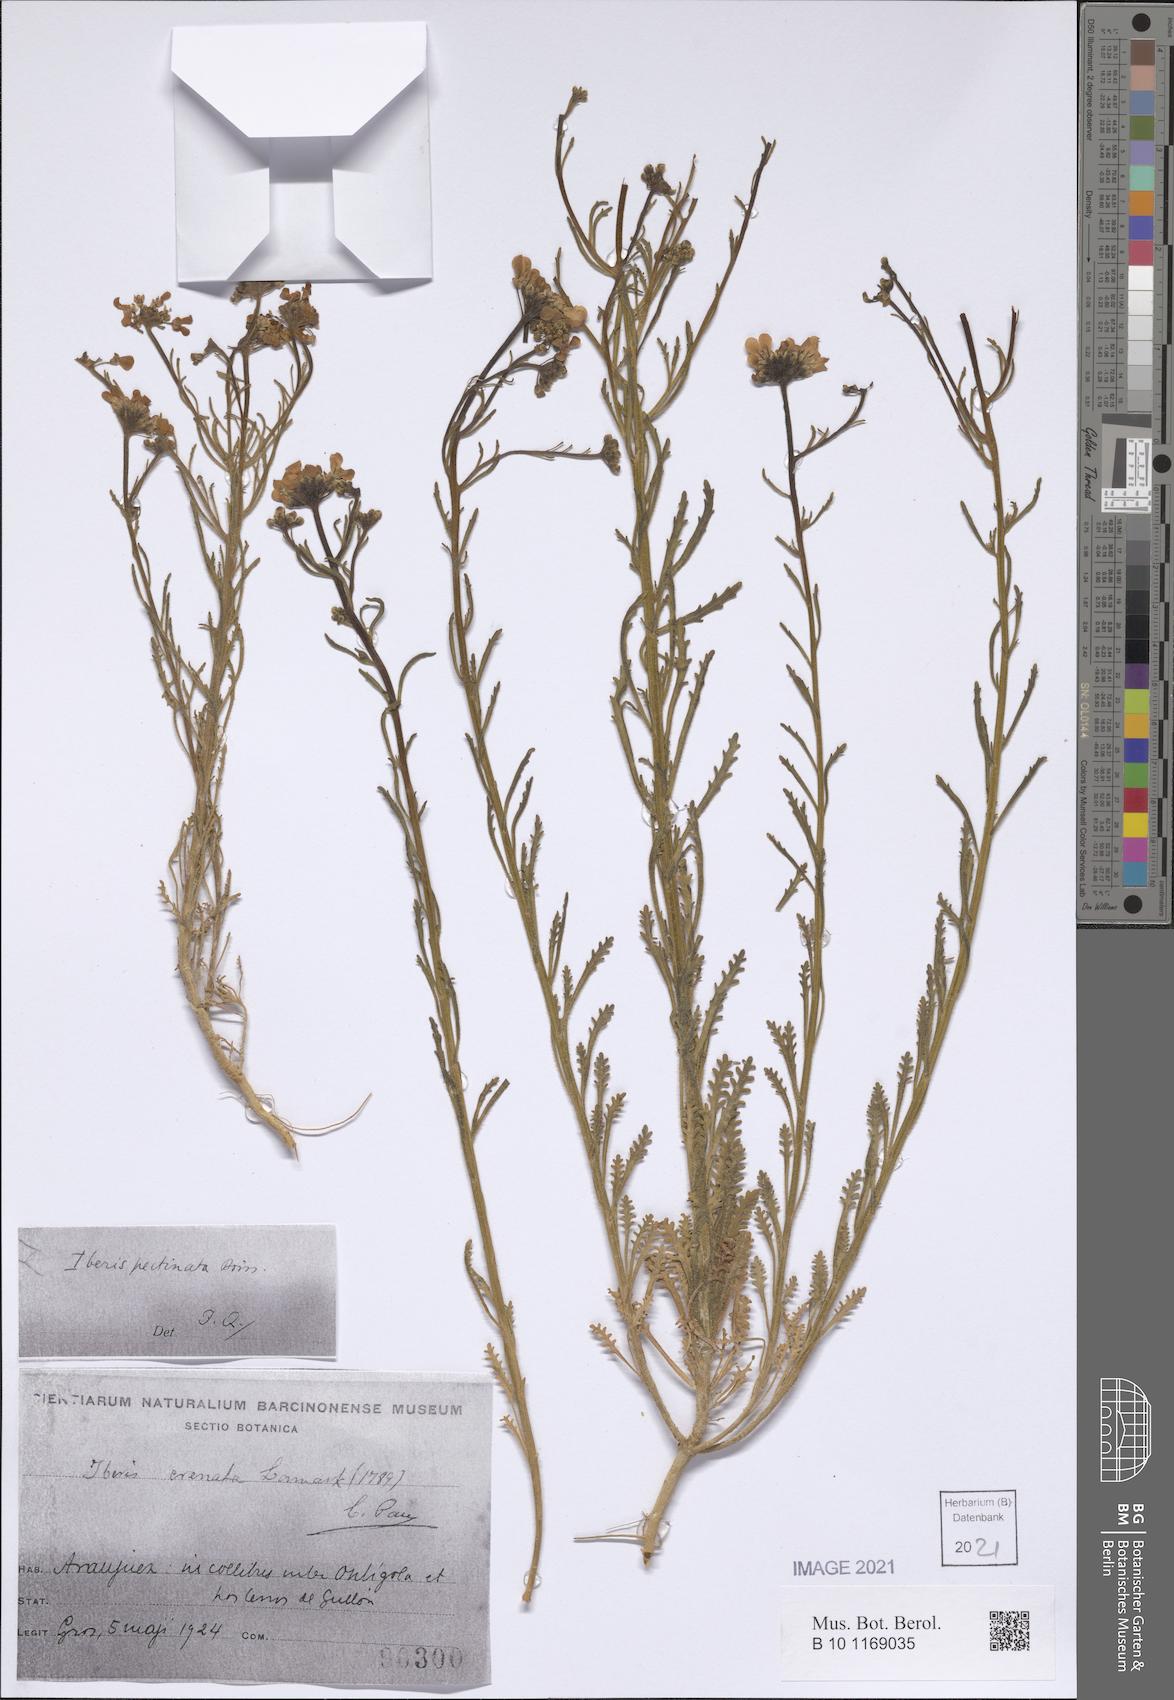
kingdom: Plantae
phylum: Tracheophyta
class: Magnoliopsida
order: Brassicales
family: Brassicaceae
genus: Iberis
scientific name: Iberis pectinata
